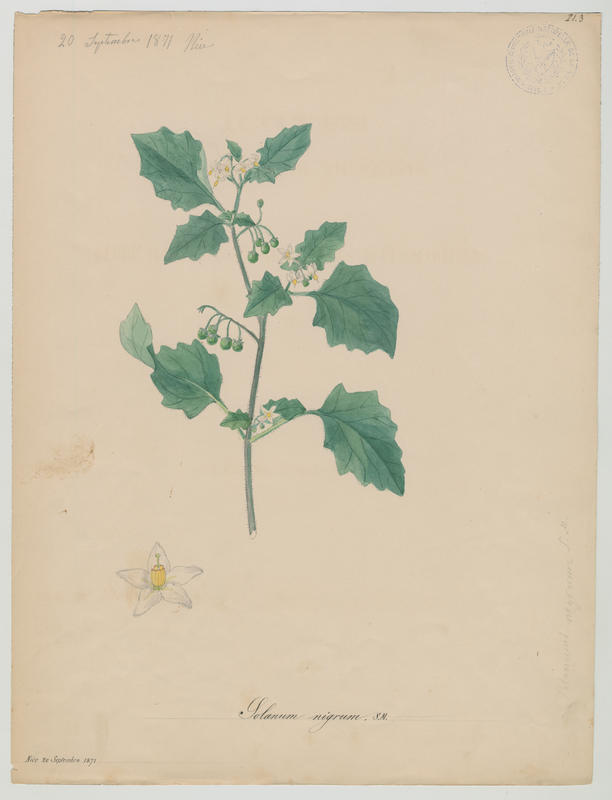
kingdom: Plantae
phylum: Tracheophyta
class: Magnoliopsida
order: Solanales
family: Solanaceae
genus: Solanum
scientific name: Solanum nigrum
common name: Black nightshade
